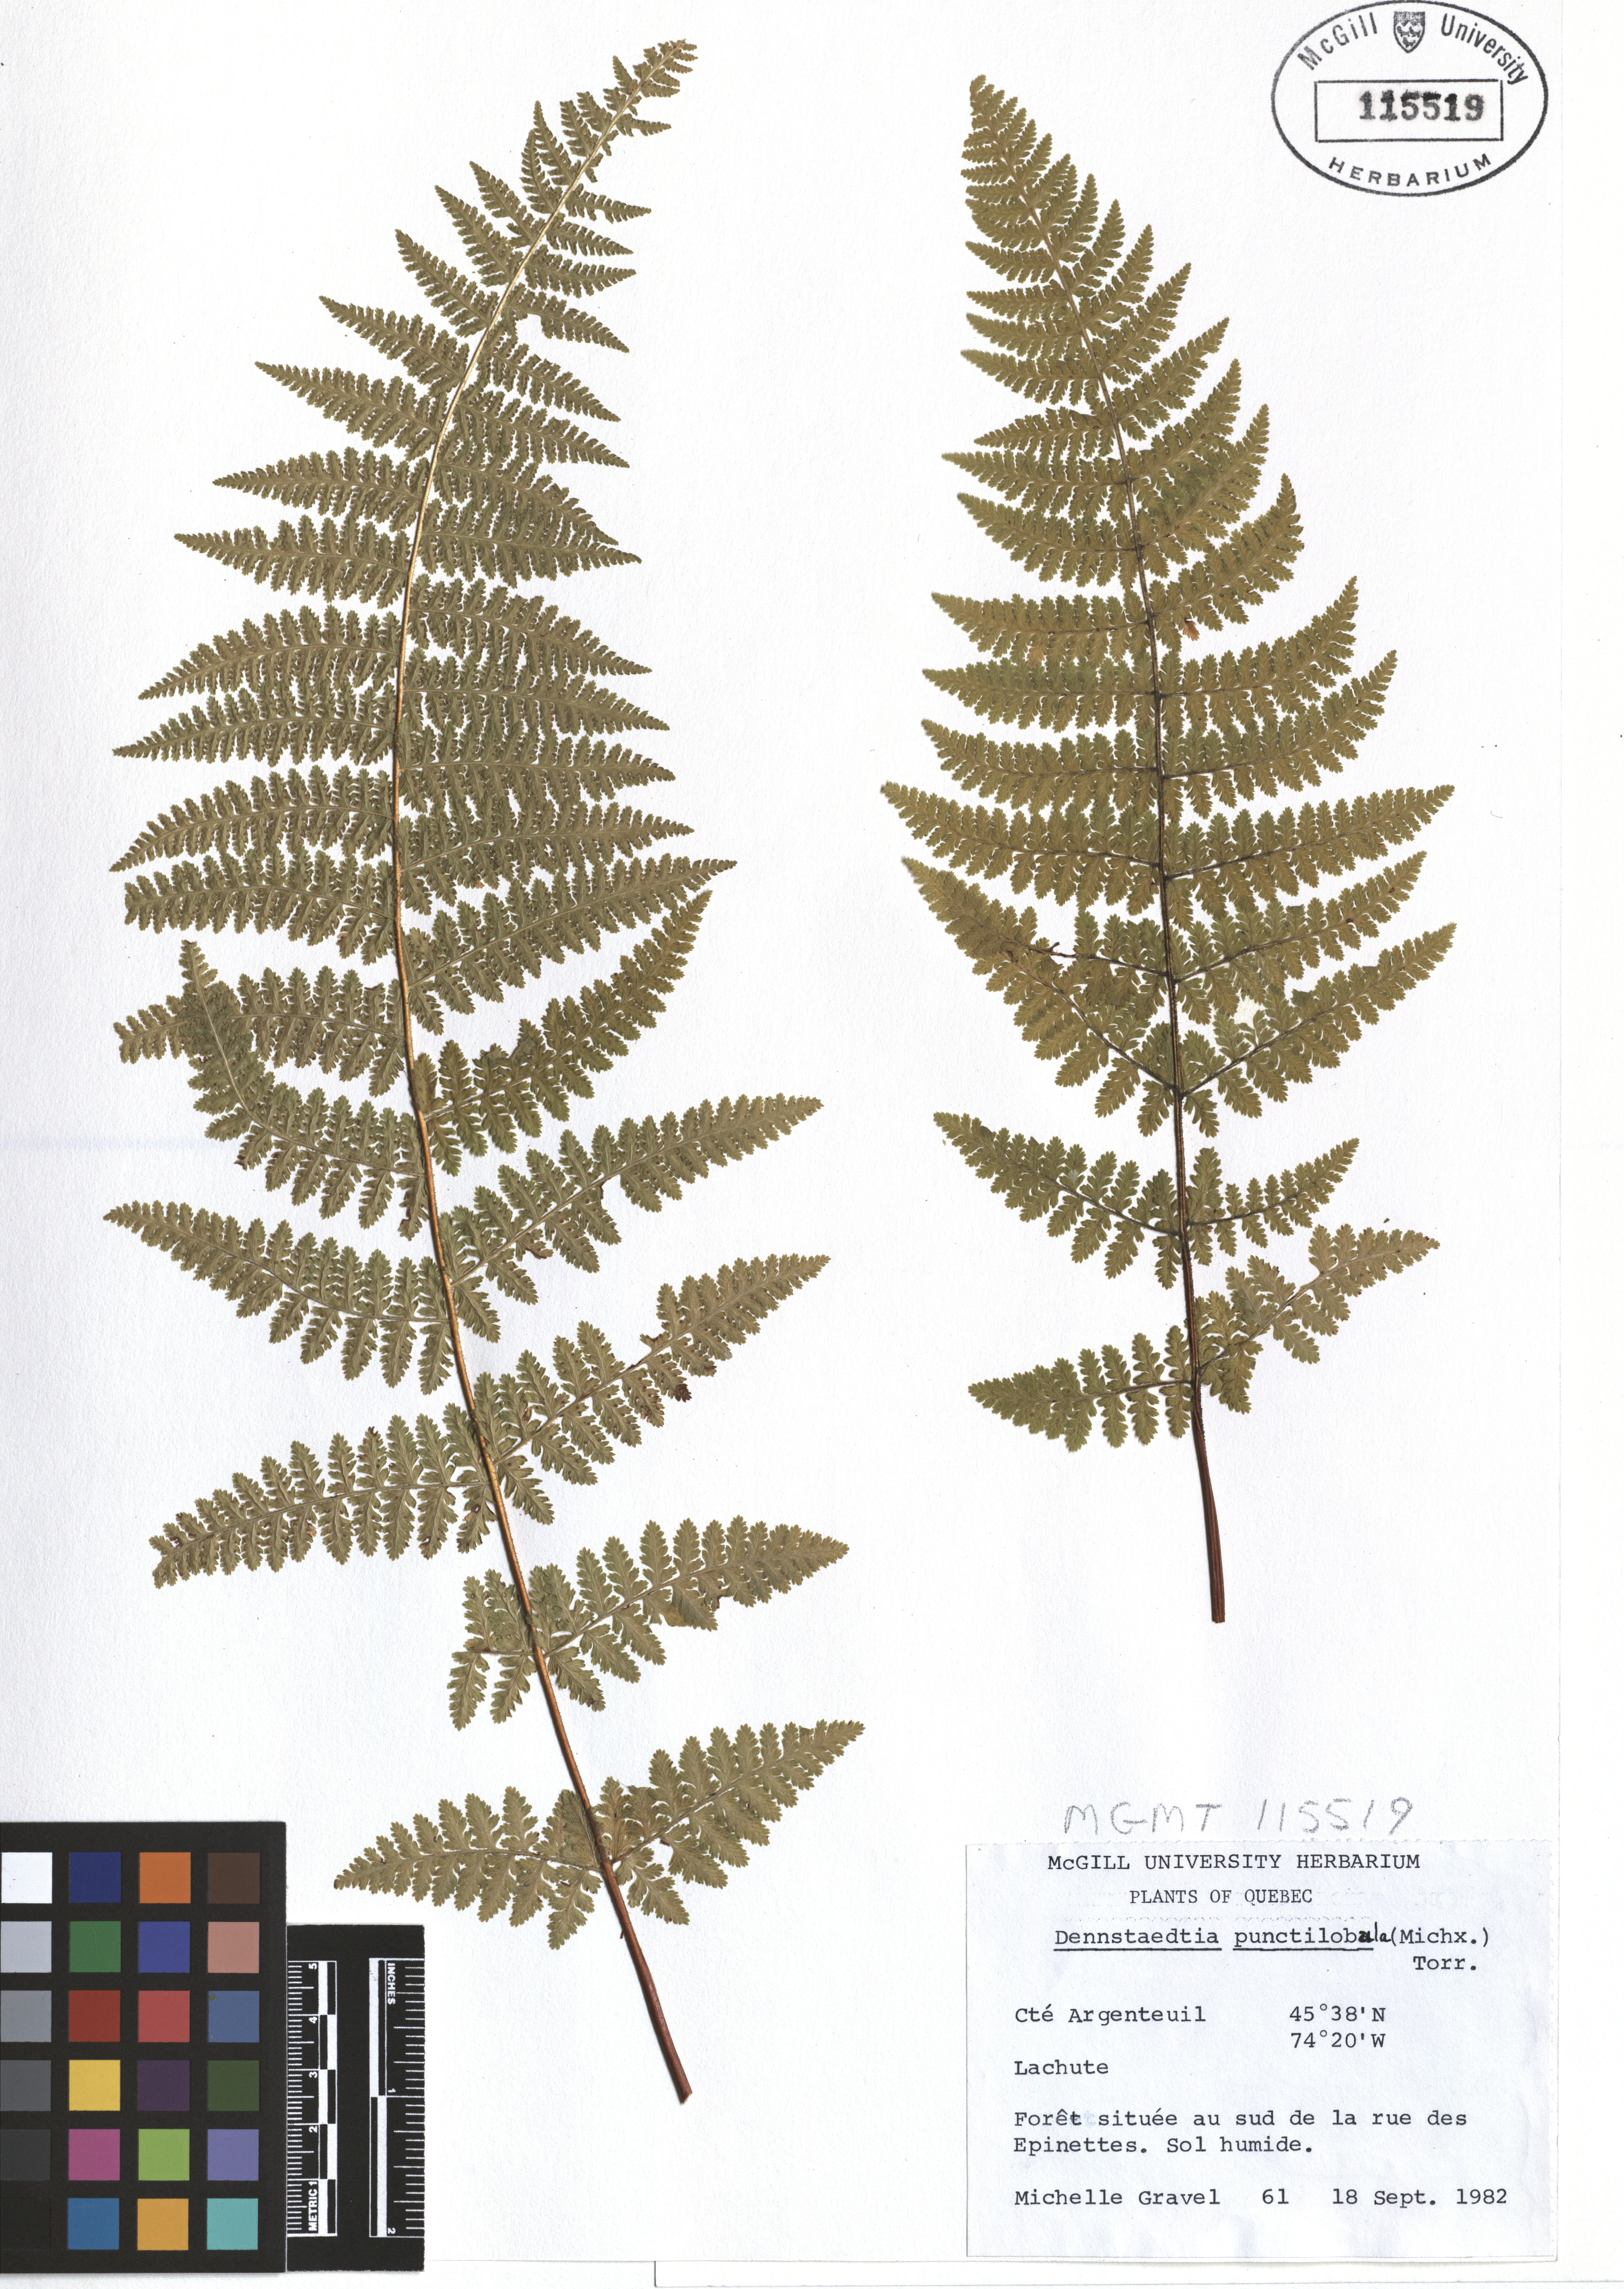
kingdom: Plantae
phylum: Tracheophyta
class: Polypodiopsida
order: Polypodiales
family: Dennstaedtiaceae
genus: Sitobolium
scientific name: Sitobolium punctilobum
